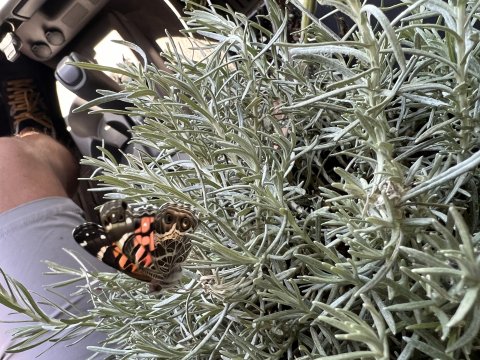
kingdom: Animalia
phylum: Arthropoda
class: Insecta
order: Lepidoptera
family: Nymphalidae
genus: Vanessa
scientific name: Vanessa virginiensis
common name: American Lady
